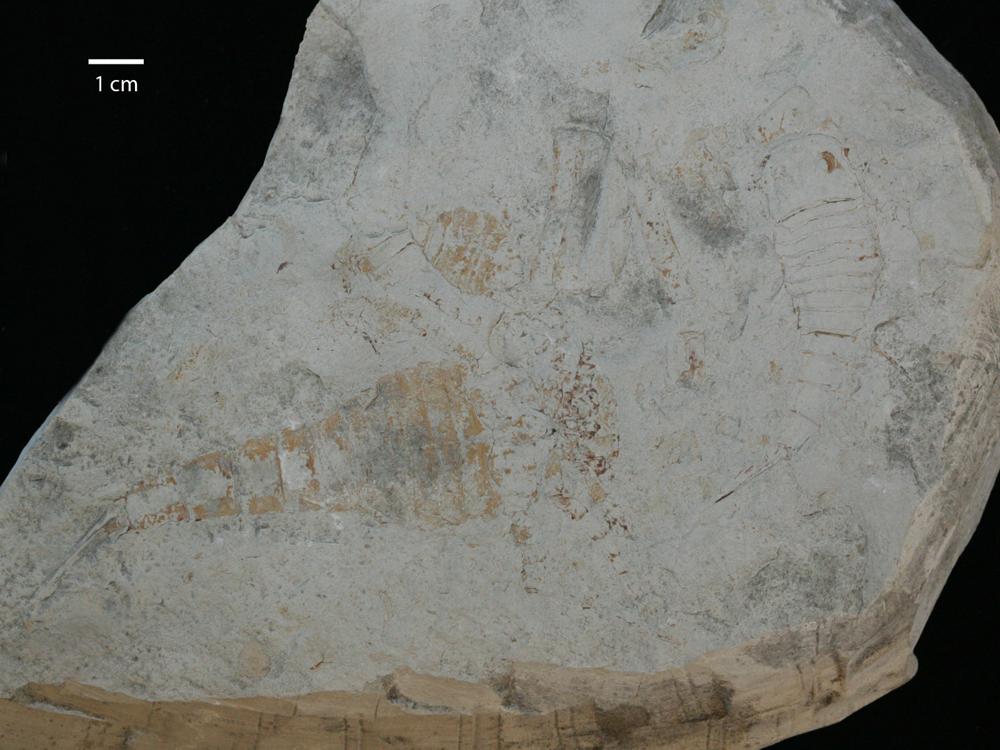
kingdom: Animalia
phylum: Arthropoda
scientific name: Arthropoda
